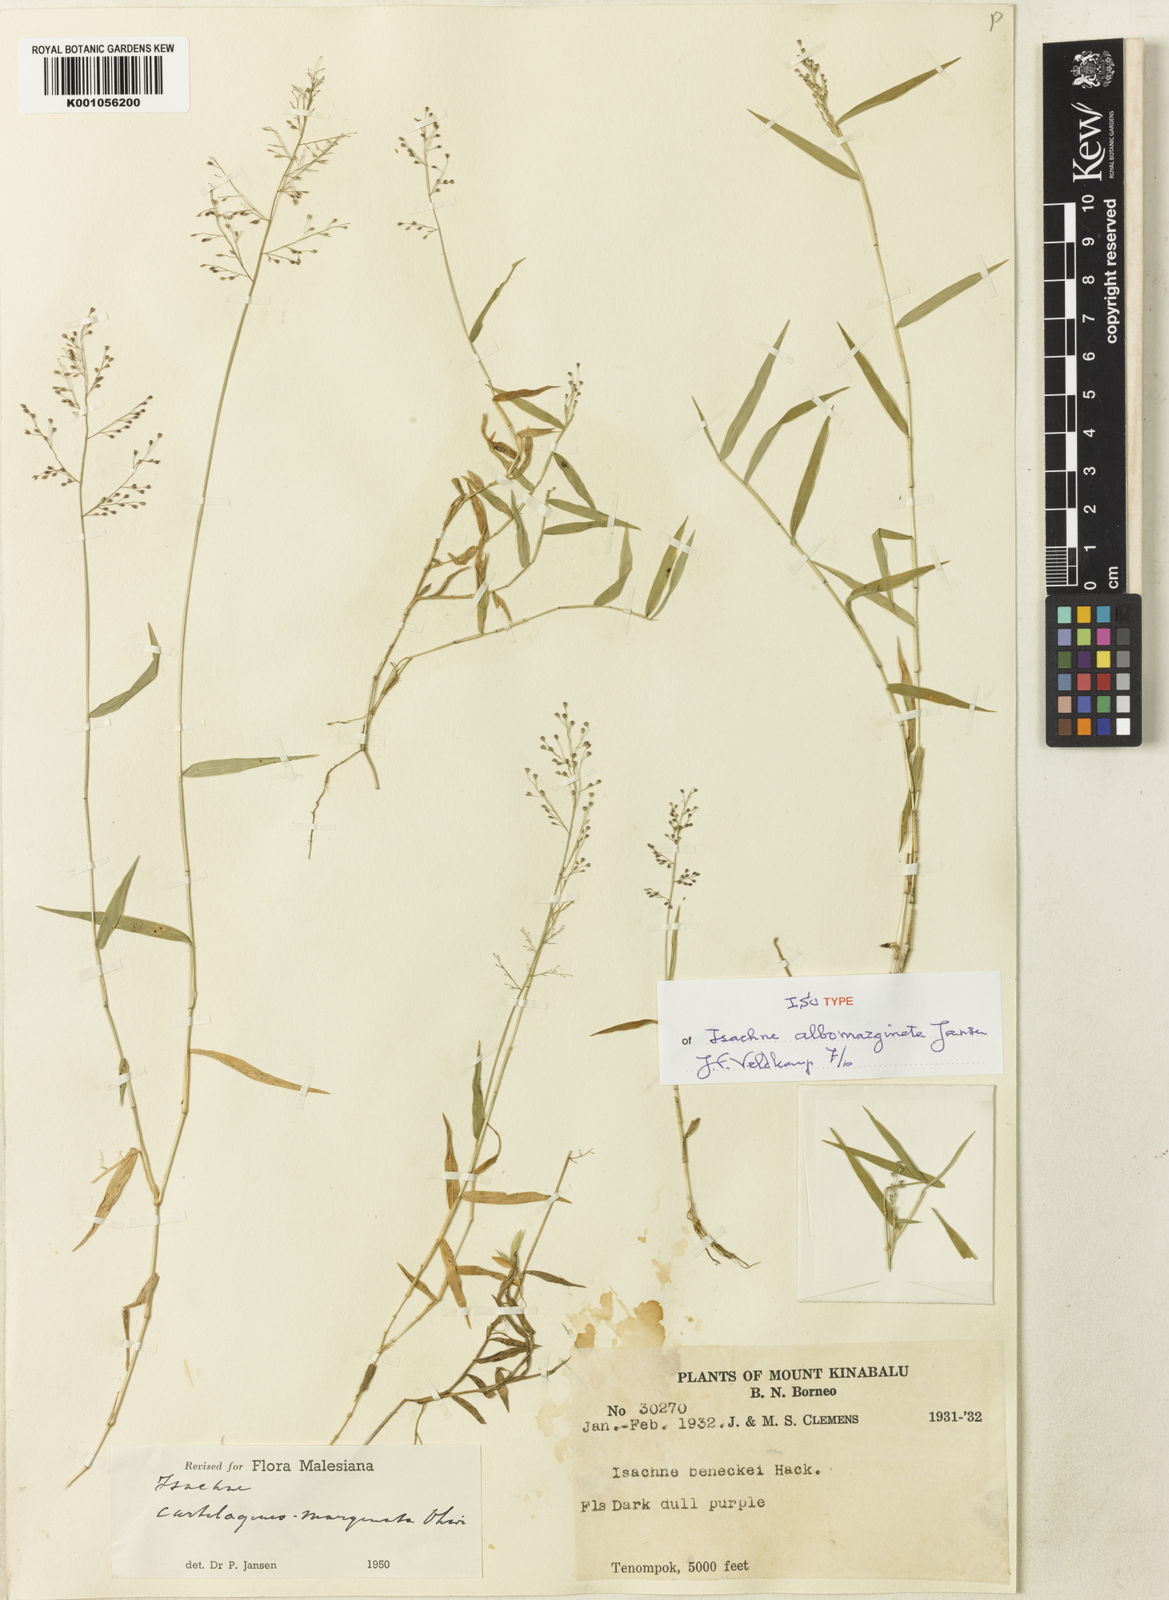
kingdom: Plantae
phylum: Tracheophyta
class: Liliopsida
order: Poales
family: Poaceae
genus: Isachne
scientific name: Isachne clarkei
